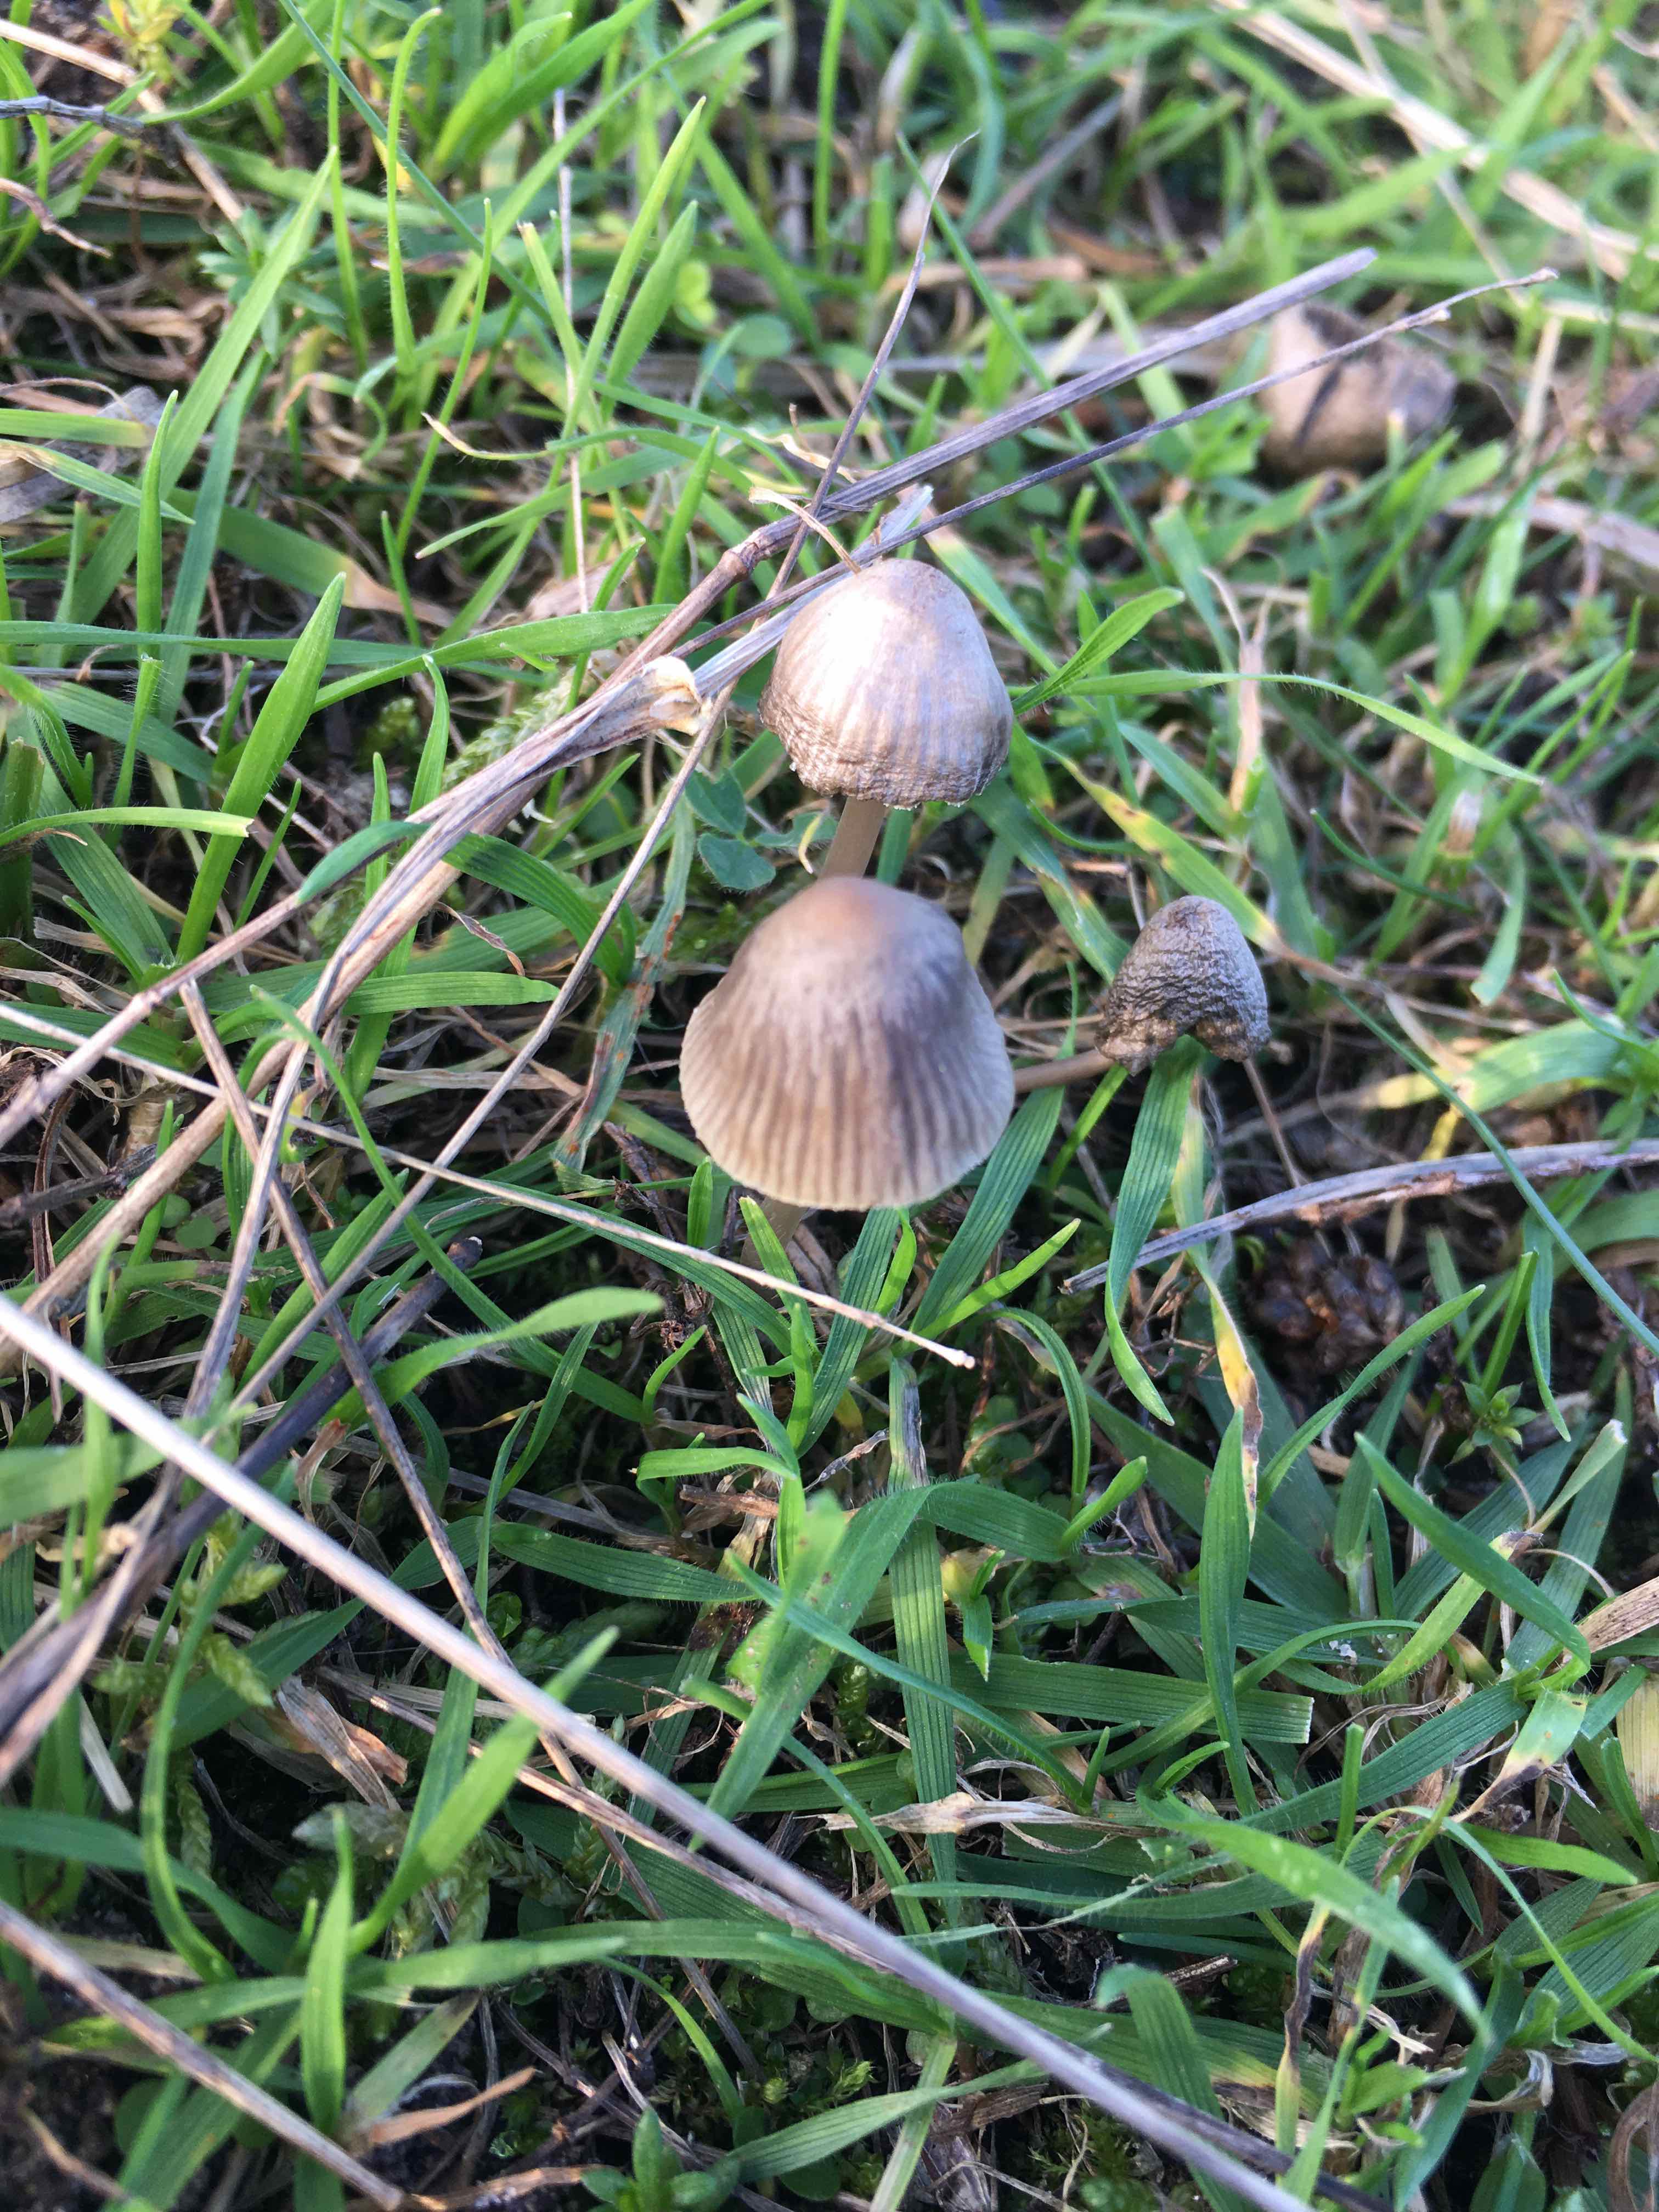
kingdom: Fungi
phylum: Basidiomycota
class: Agaricomycetes
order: Agaricales
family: Mycenaceae
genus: Mycena
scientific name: Mycena
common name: huesvamp
